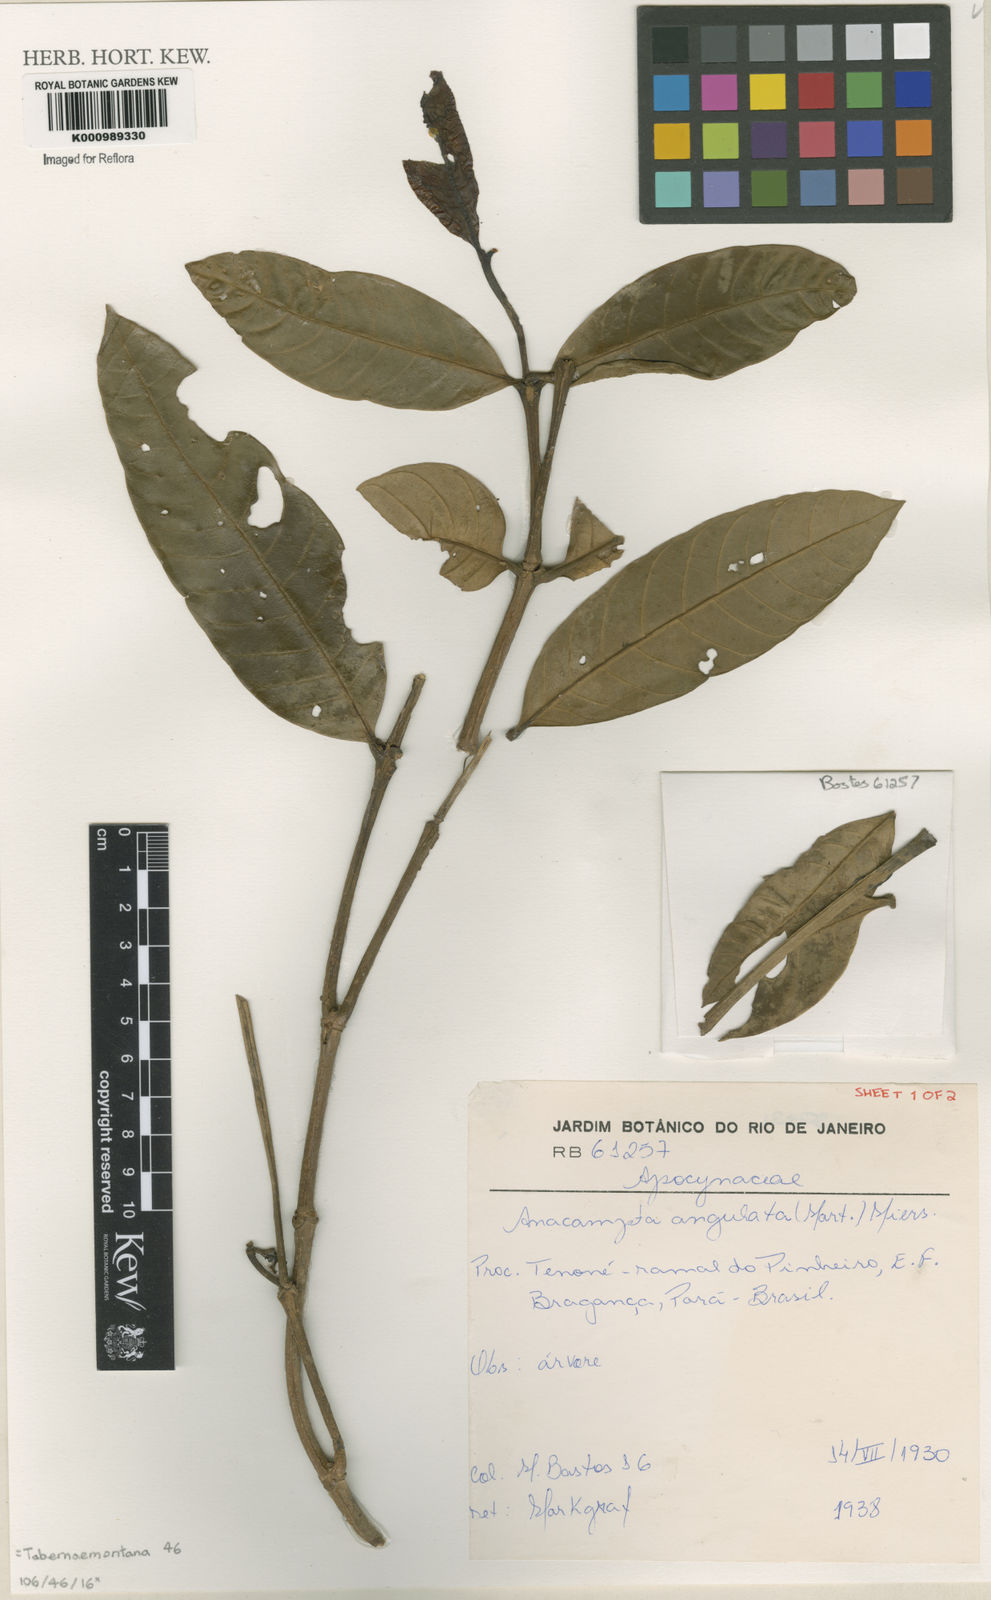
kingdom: Plantae
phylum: Tracheophyta
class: Magnoliopsida
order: Gentianales
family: Apocynaceae
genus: Tabernaemontana
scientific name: Tabernaemontana
